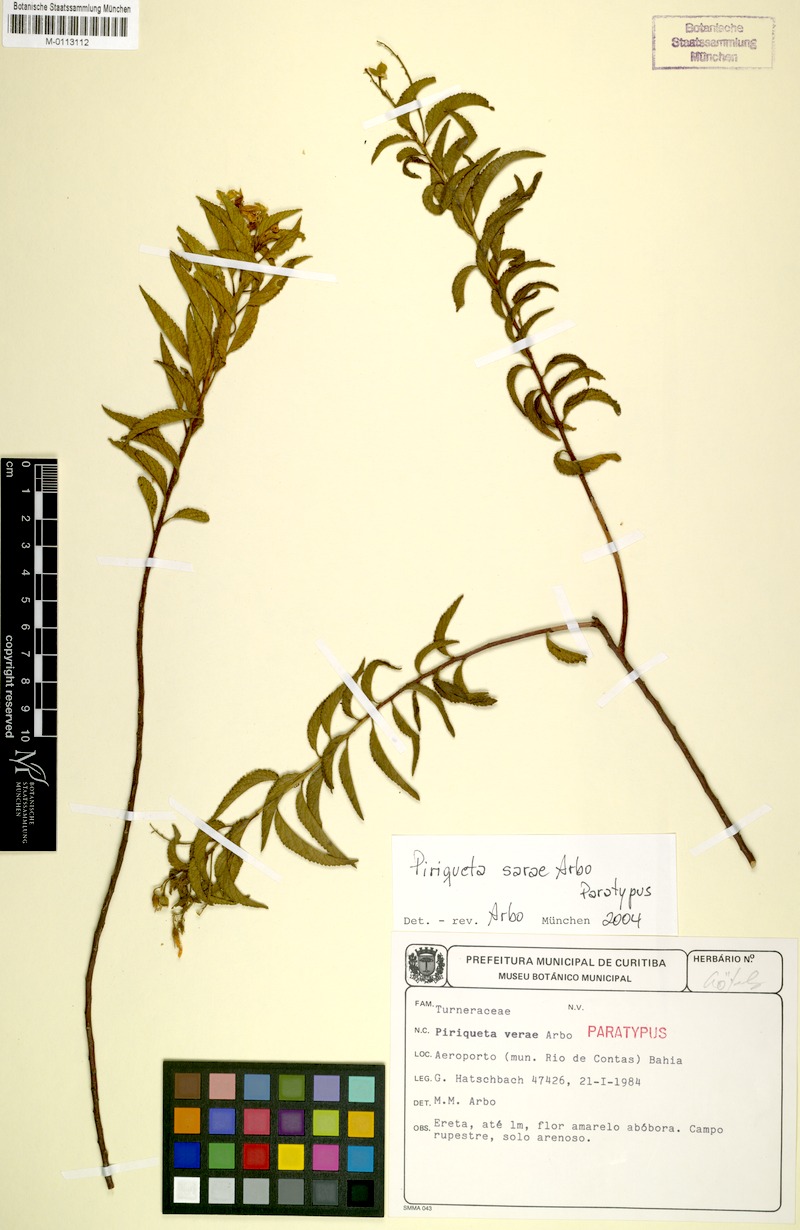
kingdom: Plantae
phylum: Tracheophyta
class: Magnoliopsida
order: Malpighiales
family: Turneraceae
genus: Piriqueta
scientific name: Piriqueta sarae
